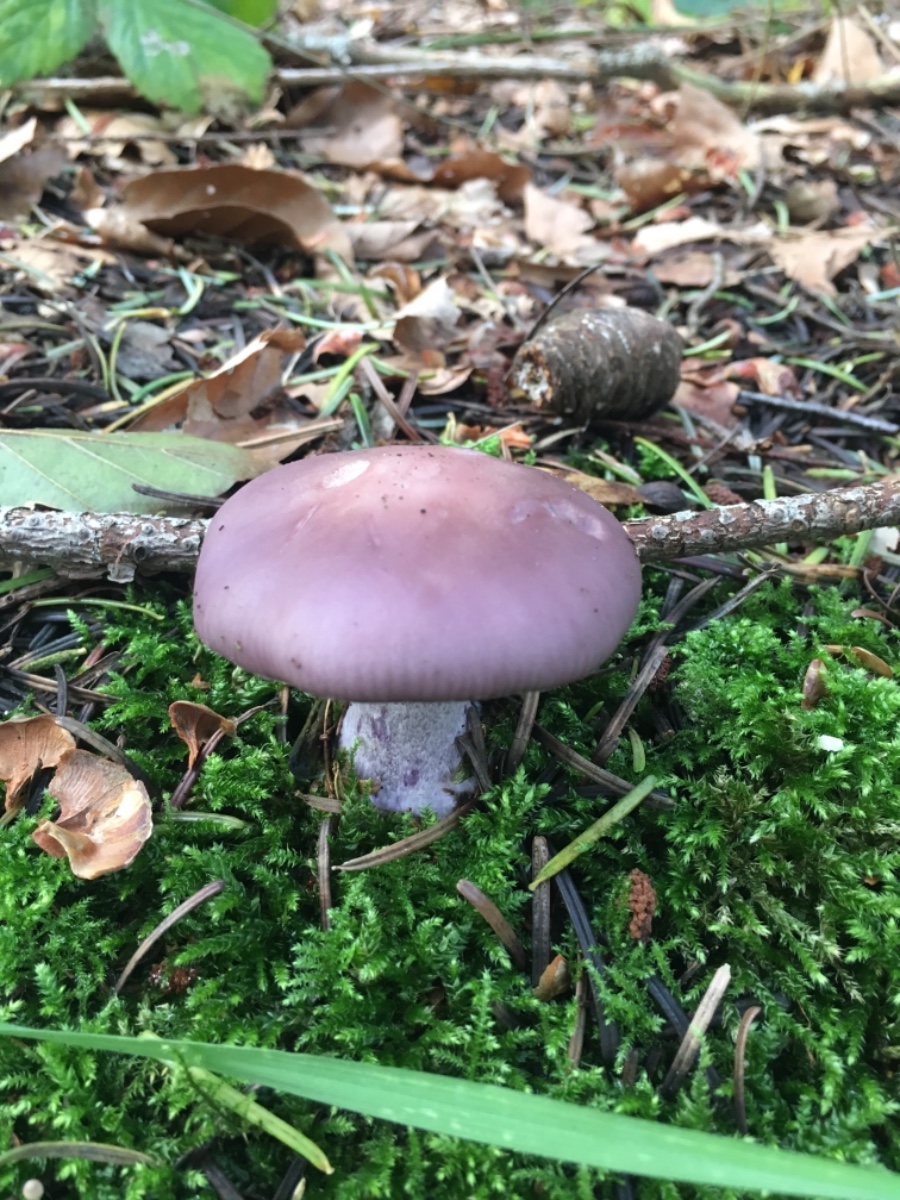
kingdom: Fungi
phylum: Basidiomycota
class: Agaricomycetes
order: Agaricales
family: Tricholomataceae
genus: Lepista
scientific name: Lepista nuda
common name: violet hekseringshat
